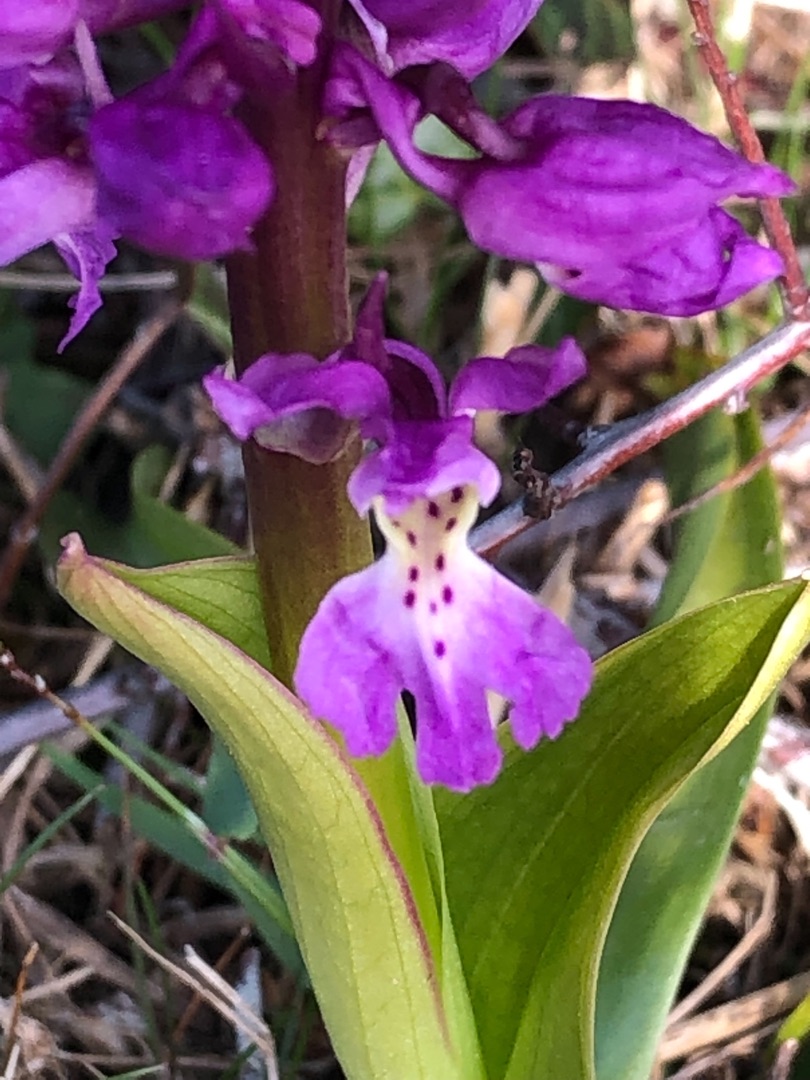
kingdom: Plantae
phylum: Tracheophyta
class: Liliopsida
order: Asparagales
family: Orchidaceae
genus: Orchis
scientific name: Orchis mascula
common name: Tyndakset gøgeurt
